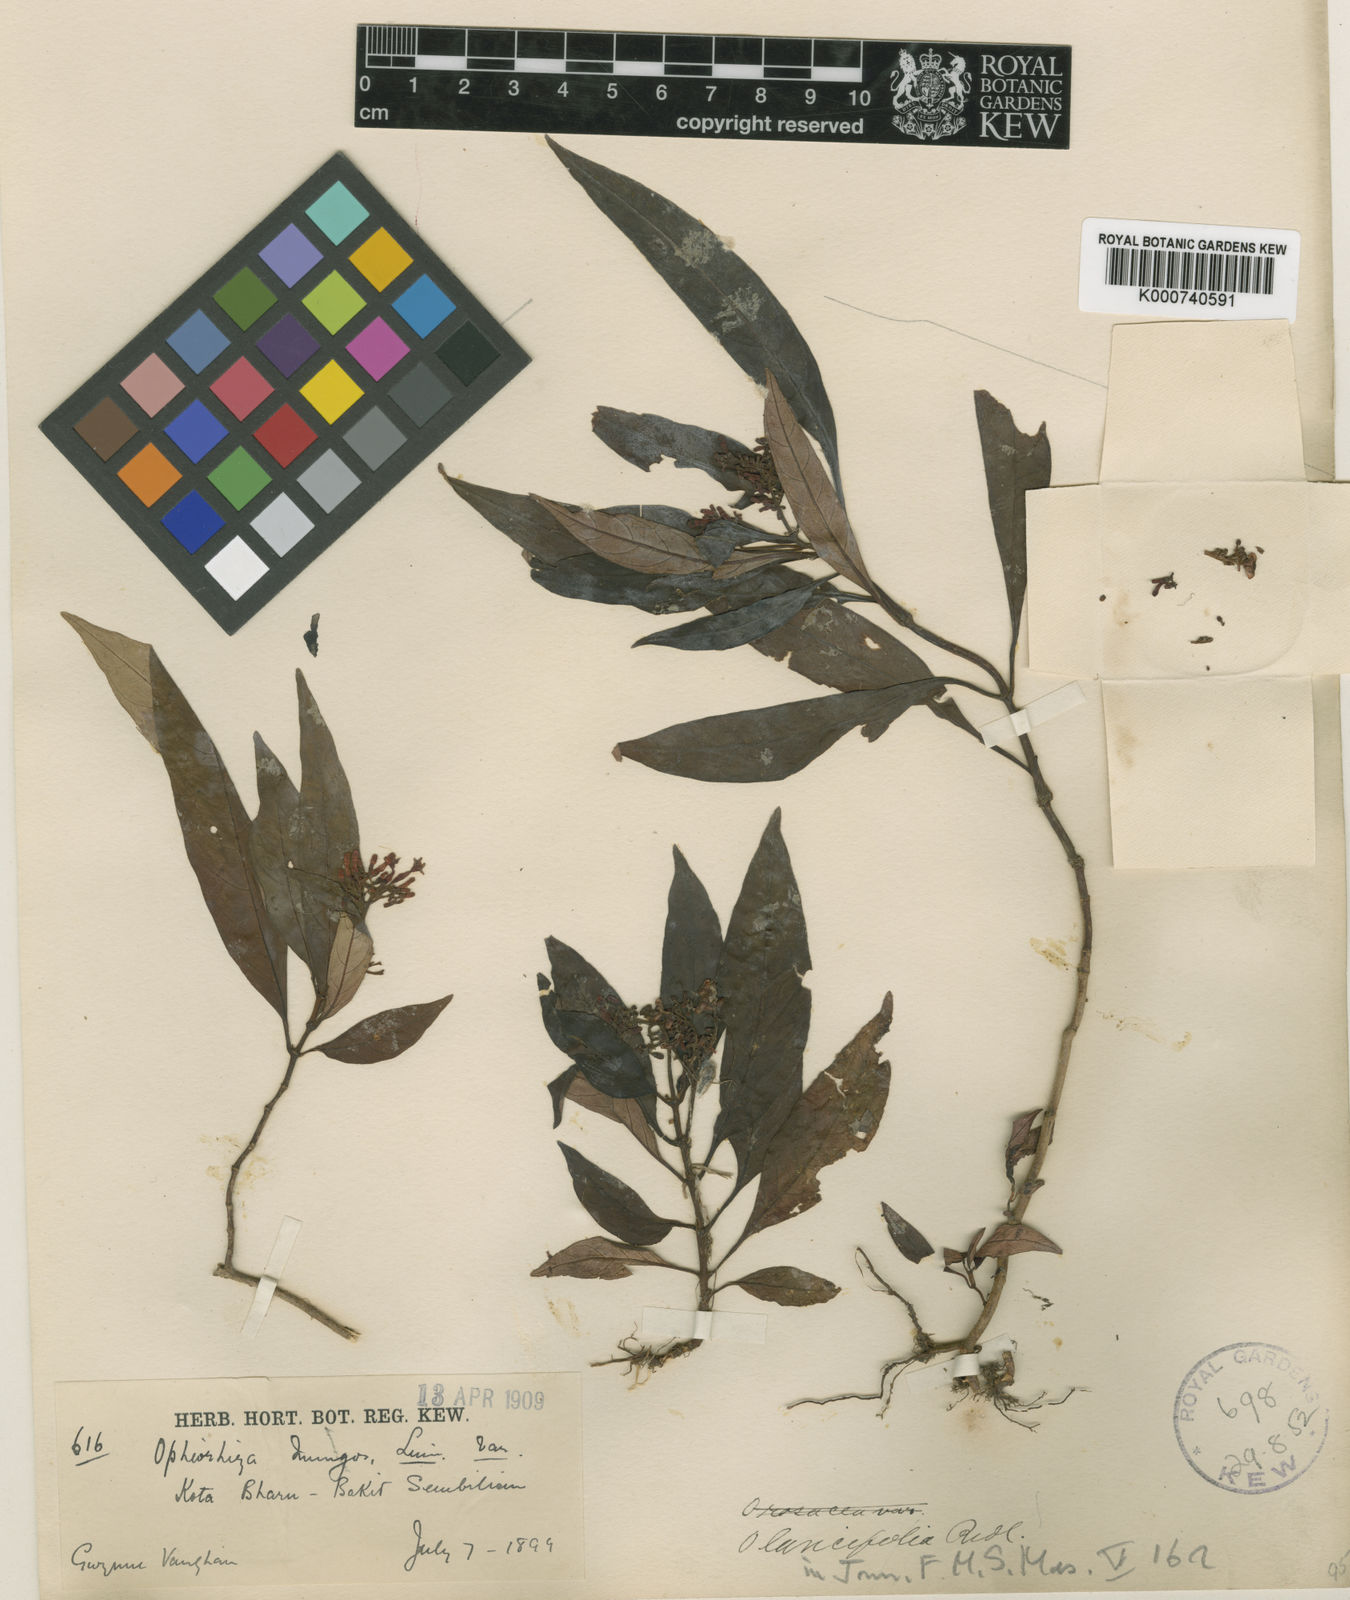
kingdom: Plantae
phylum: Tracheophyta
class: Magnoliopsida
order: Gentianales
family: Rubiaceae
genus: Ophiorrhiza
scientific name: Ophiorrhiza lancifolia
